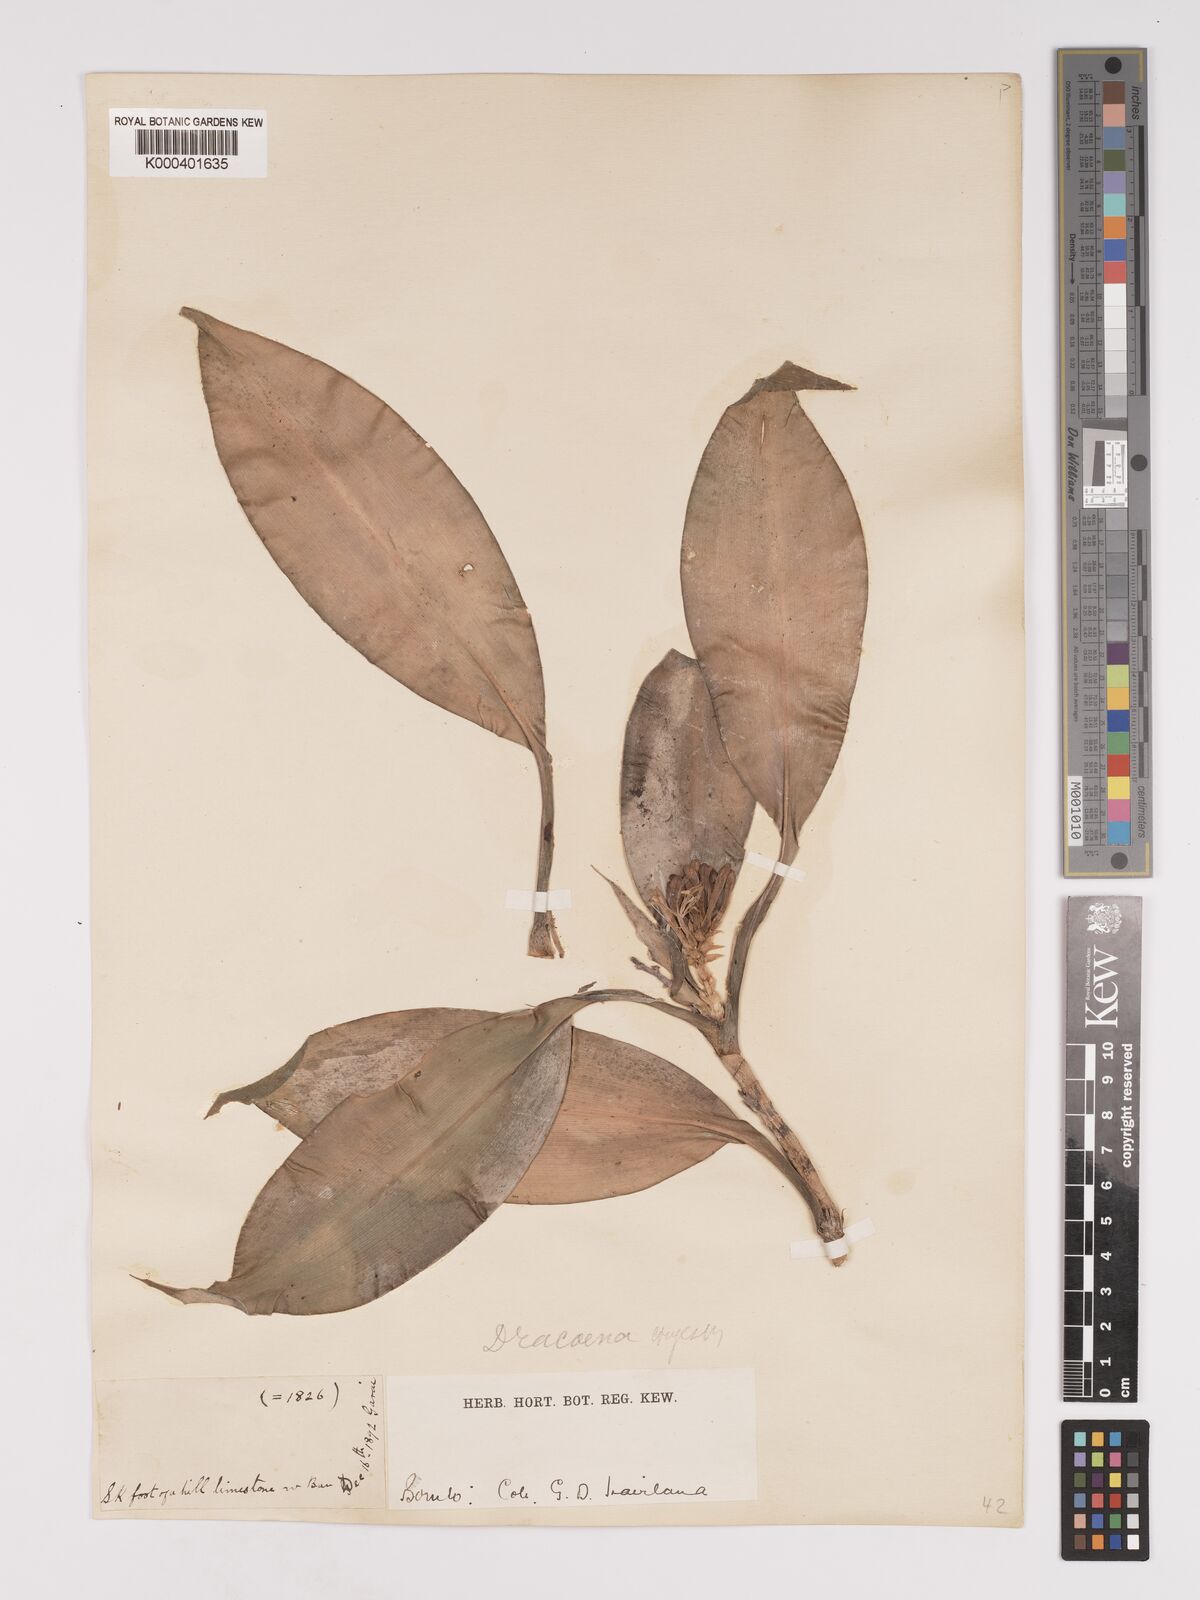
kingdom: Plantae
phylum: Tracheophyta
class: Liliopsida
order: Asparagales
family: Asparagaceae
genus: Dracaena
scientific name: Dracaena chiniana
